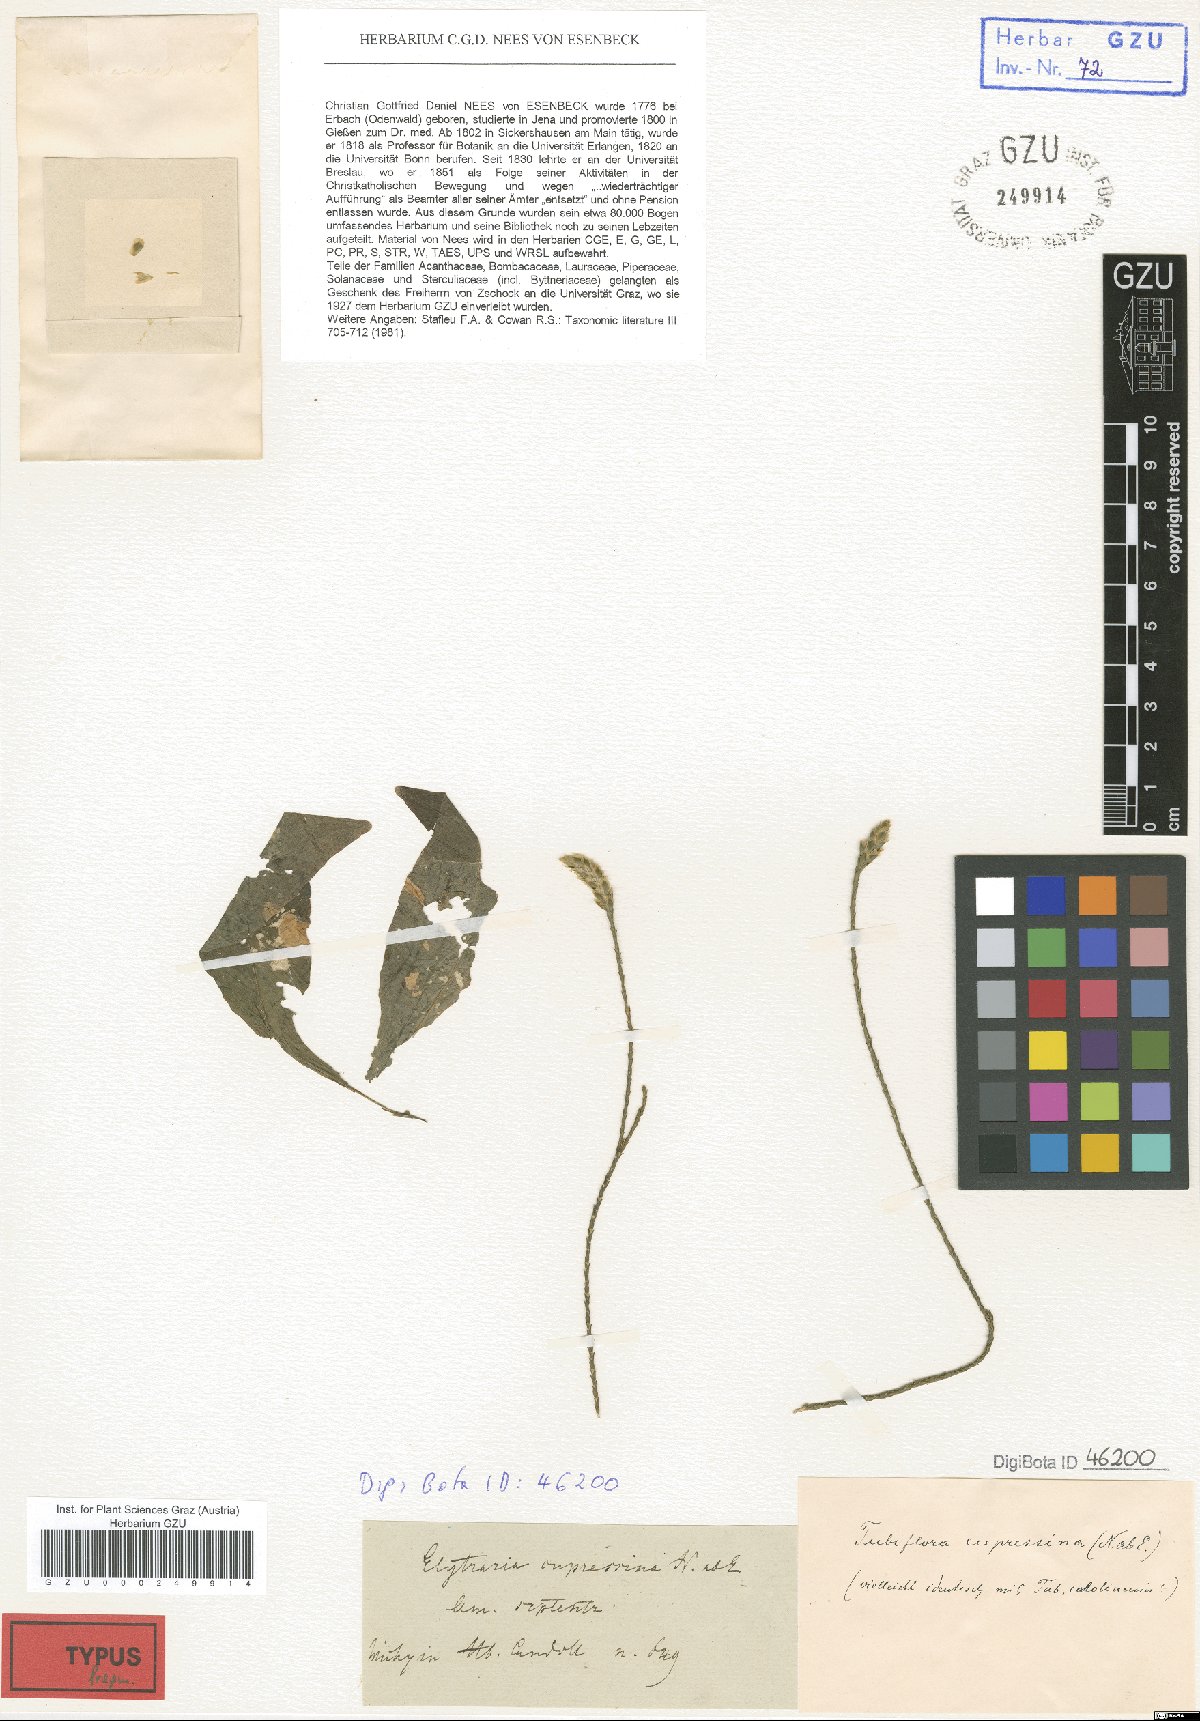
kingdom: Plantae
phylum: Tracheophyta
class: Magnoliopsida
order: Lamiales
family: Acanthaceae
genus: Elytraria
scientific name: Elytraria caroliniensis
